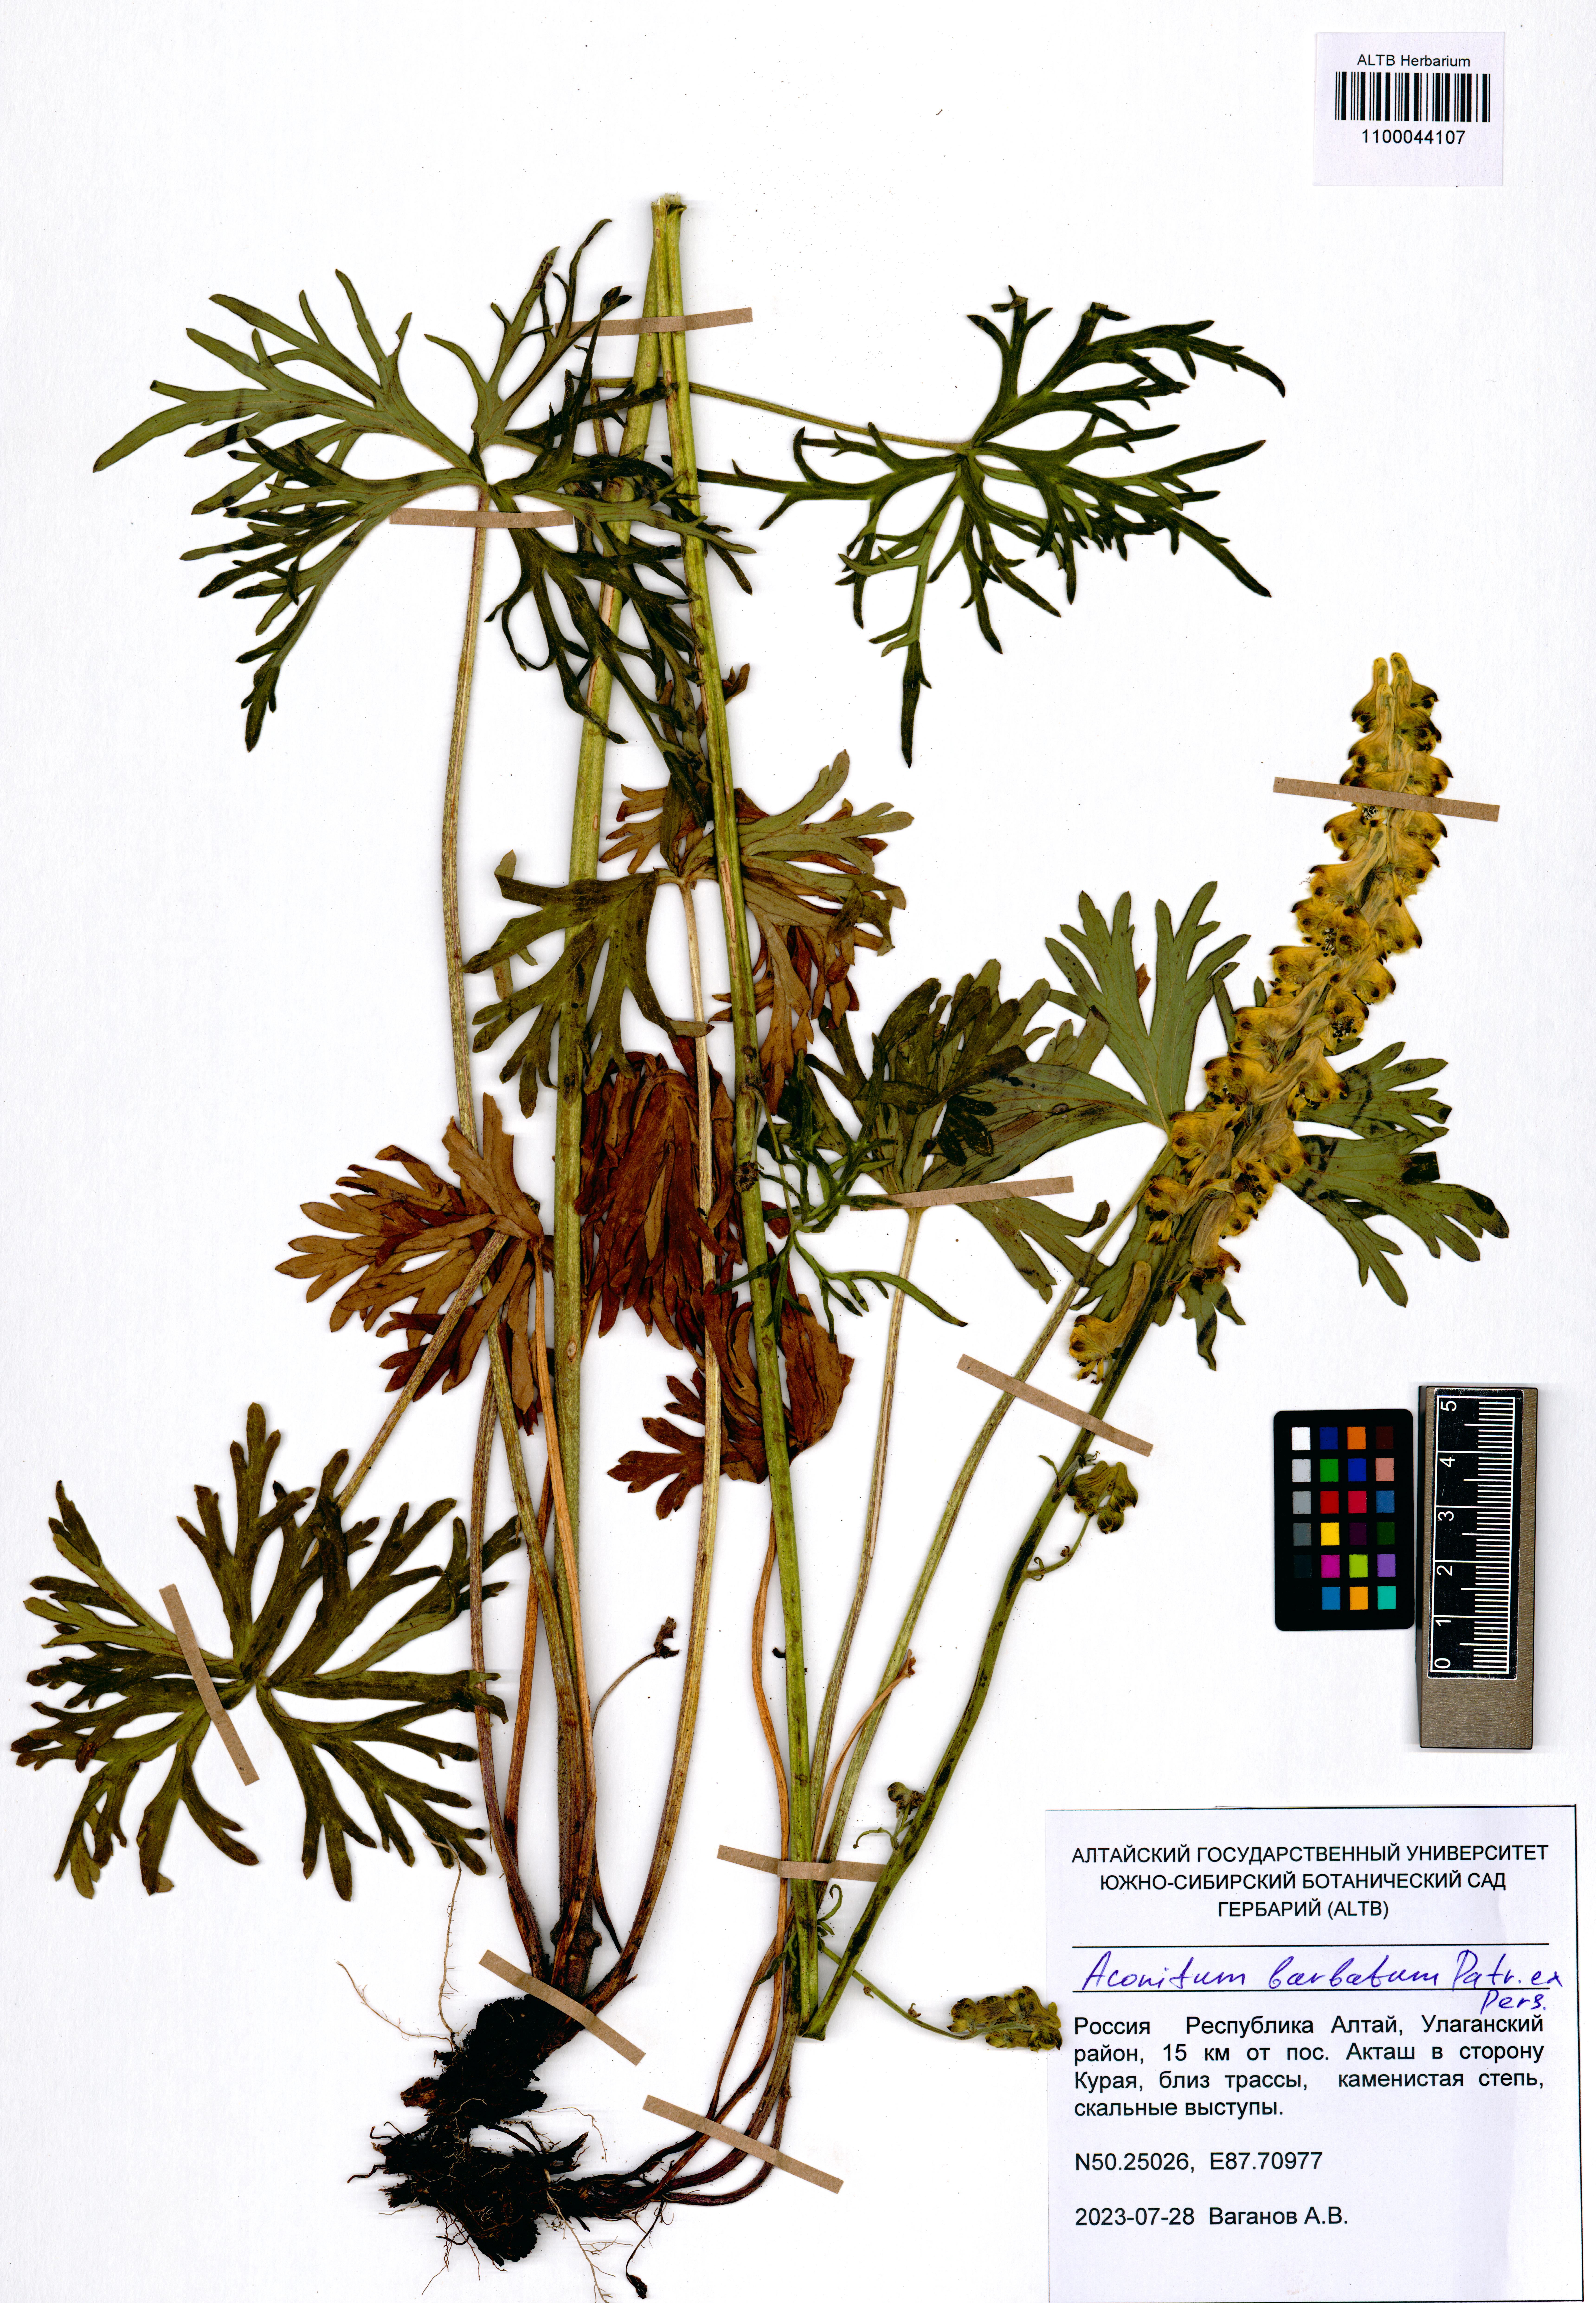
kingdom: Plantae
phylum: Tracheophyta
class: Magnoliopsida
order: Ranunculales
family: Ranunculaceae
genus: Aconitum
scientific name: Aconitum barbatum
